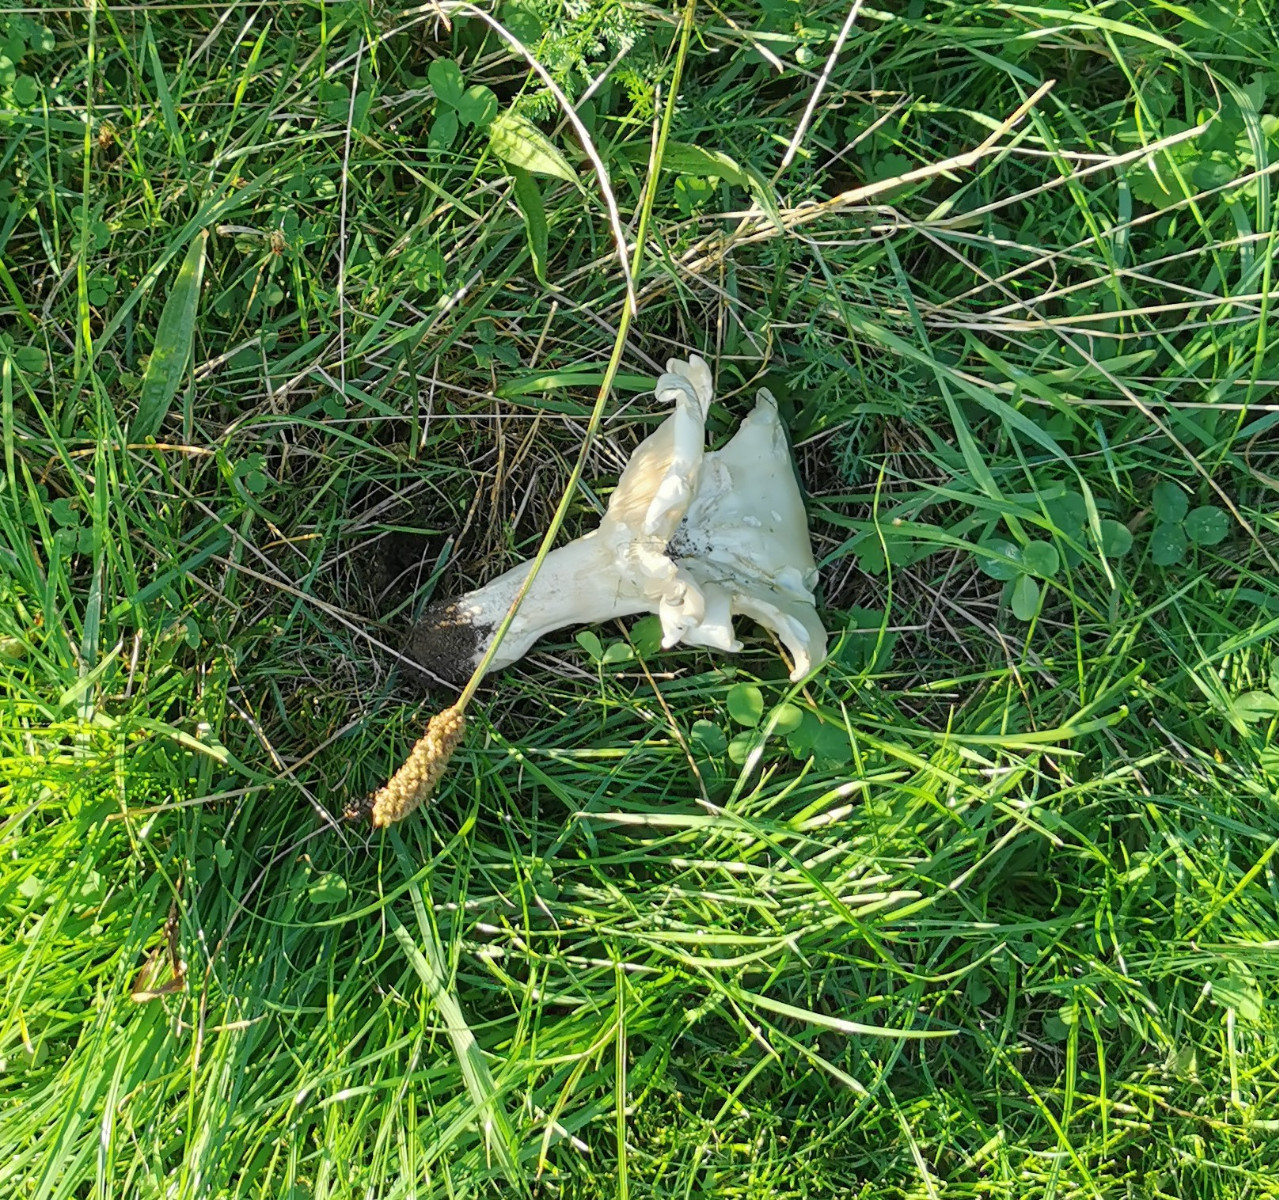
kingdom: Fungi
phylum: Basidiomycota
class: Agaricomycetes
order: Agaricales
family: Tricholomataceae
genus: Aspropaxillus
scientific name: Aspropaxillus giganteus
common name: kæmpe-tragtridderhat
